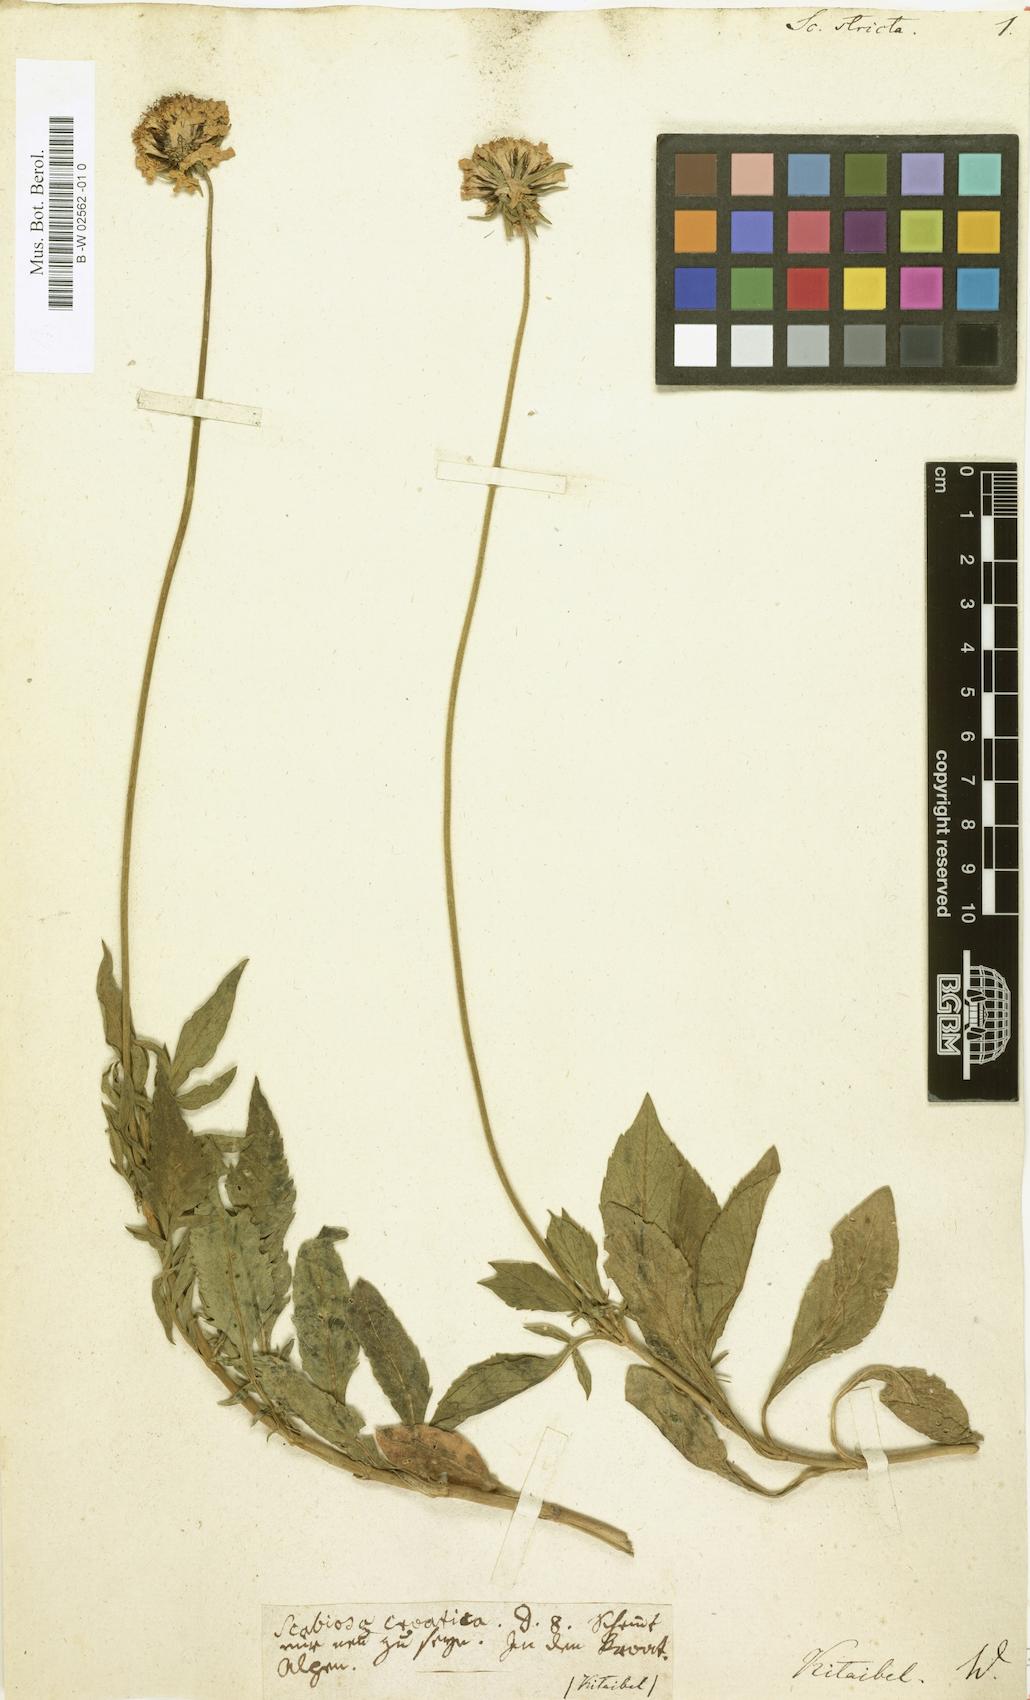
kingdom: Plantae
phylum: Tracheophyta
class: Magnoliopsida
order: Dipsacales
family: Caprifoliaceae
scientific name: Caprifoliaceae
